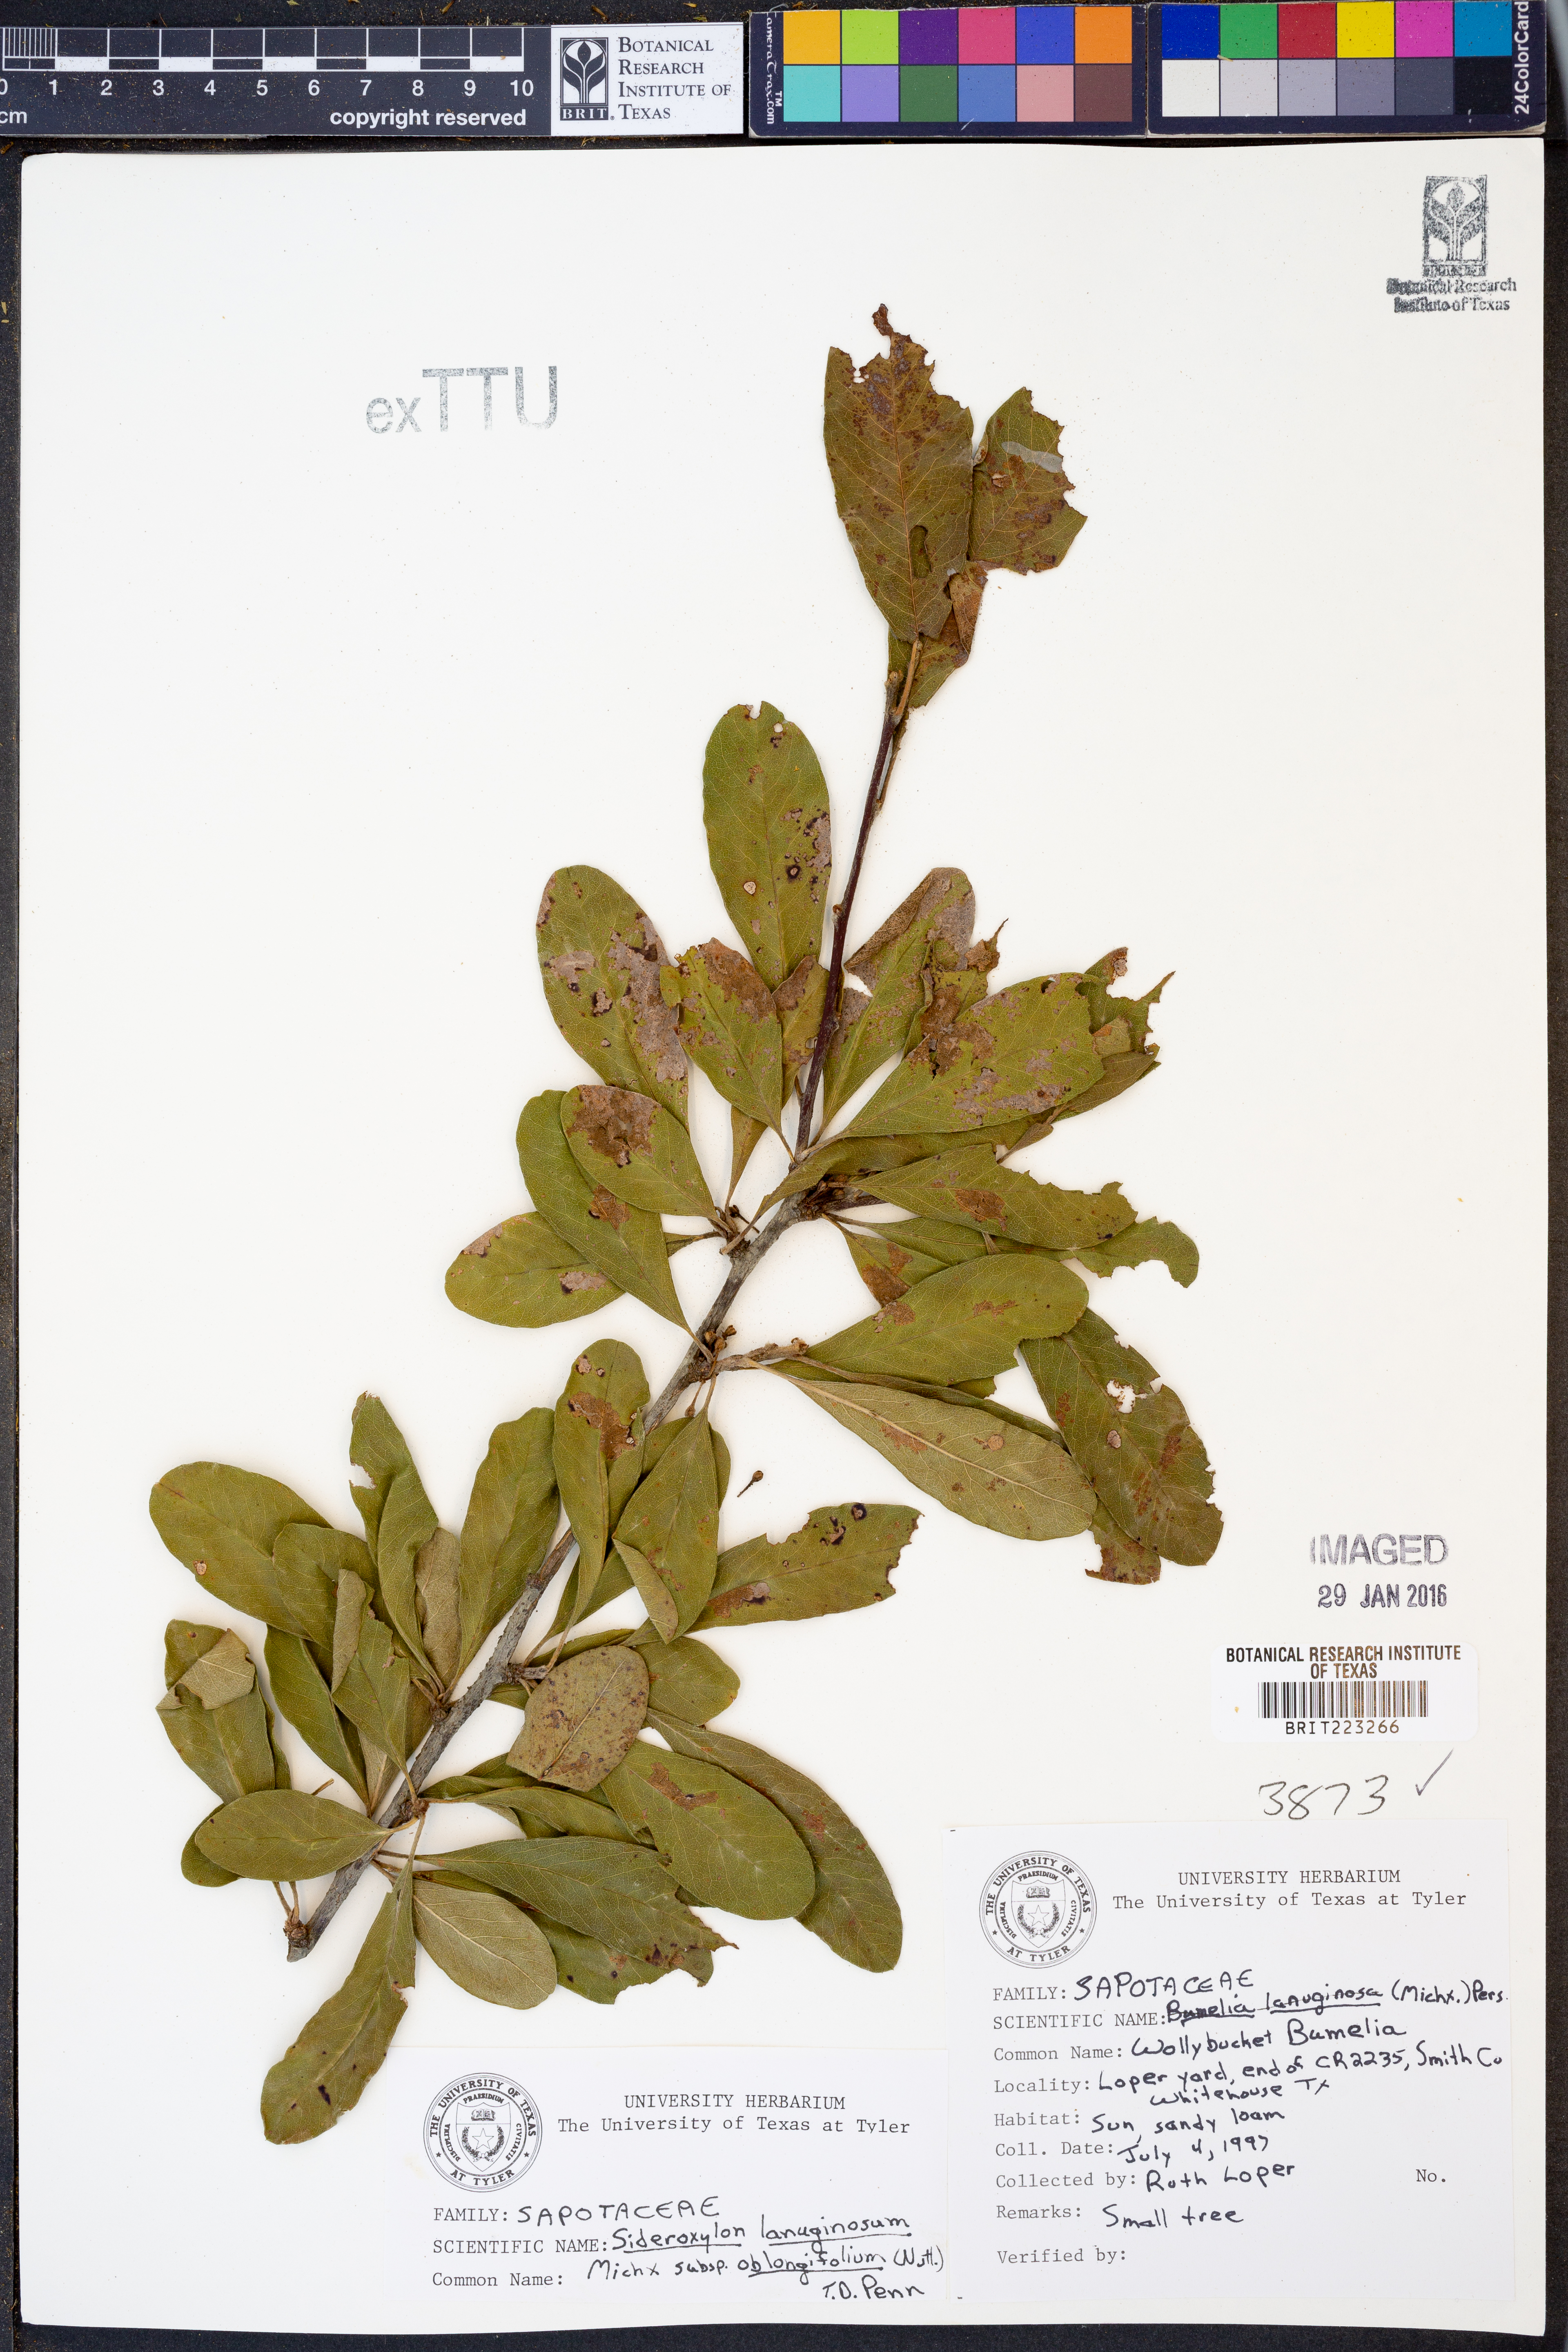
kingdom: Plantae
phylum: Tracheophyta
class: Magnoliopsida
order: Ericales
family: Sapotaceae
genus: Sideroxylon
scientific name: Sideroxylon lanuginosum
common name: Chittamwood
